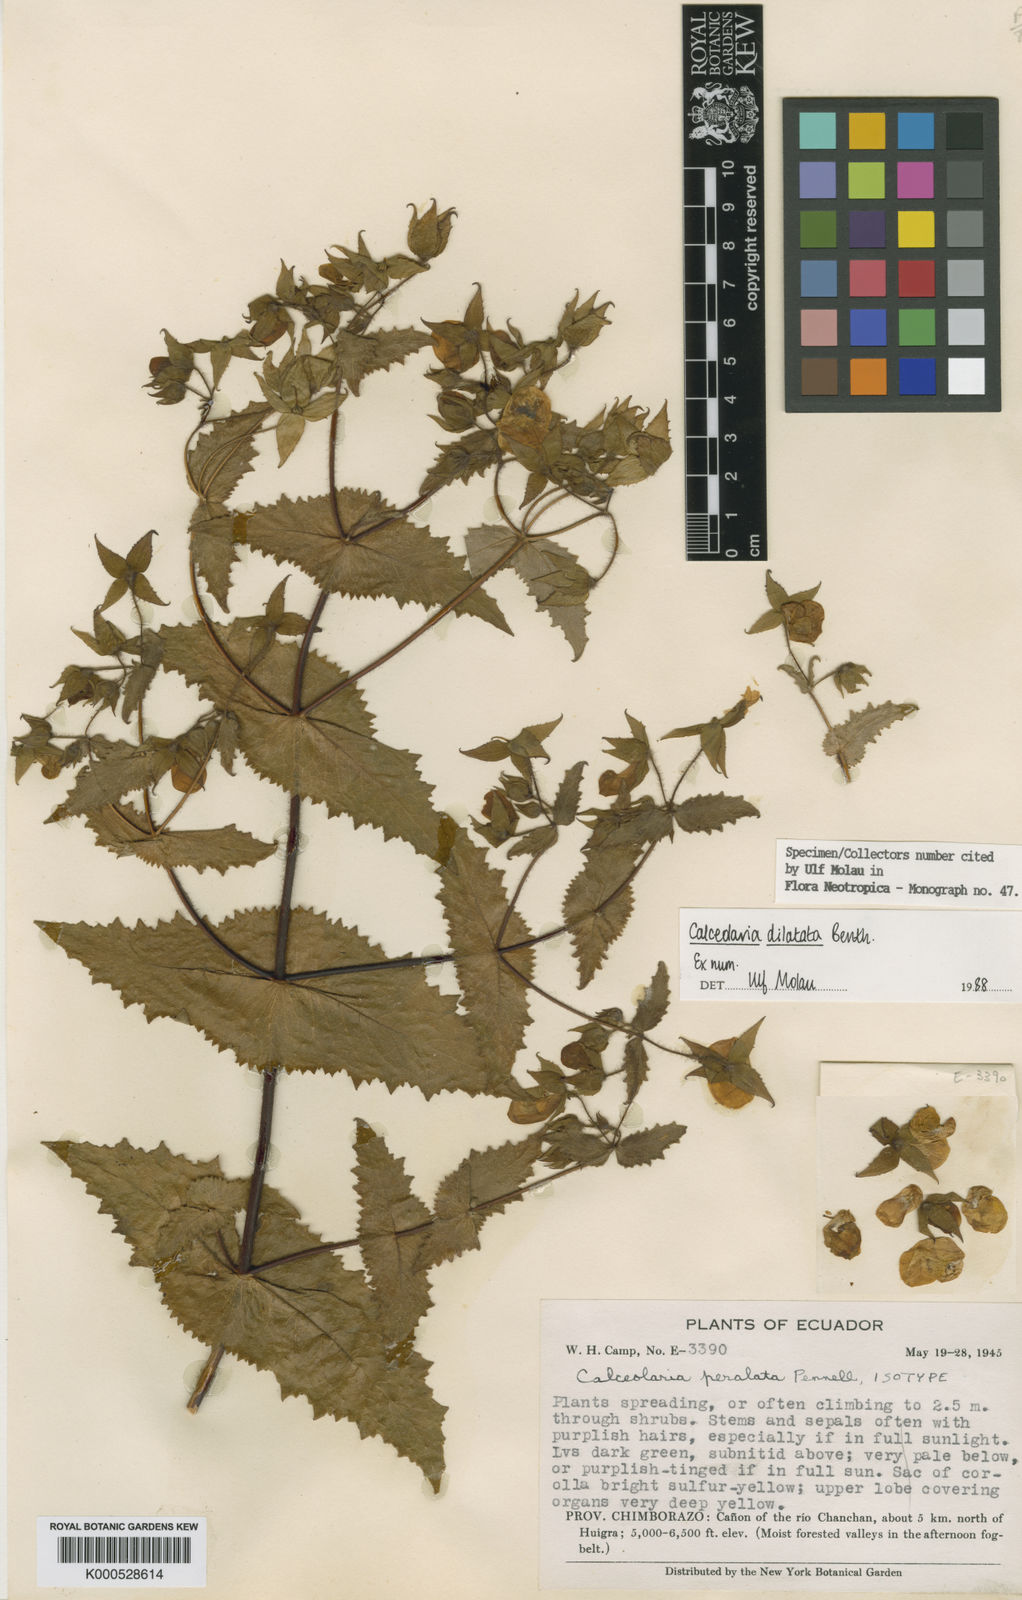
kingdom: Plantae
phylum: Tracheophyta
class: Magnoliopsida
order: Lamiales
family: Calceolariaceae
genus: Calceolaria
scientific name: Calceolaria dilatata
